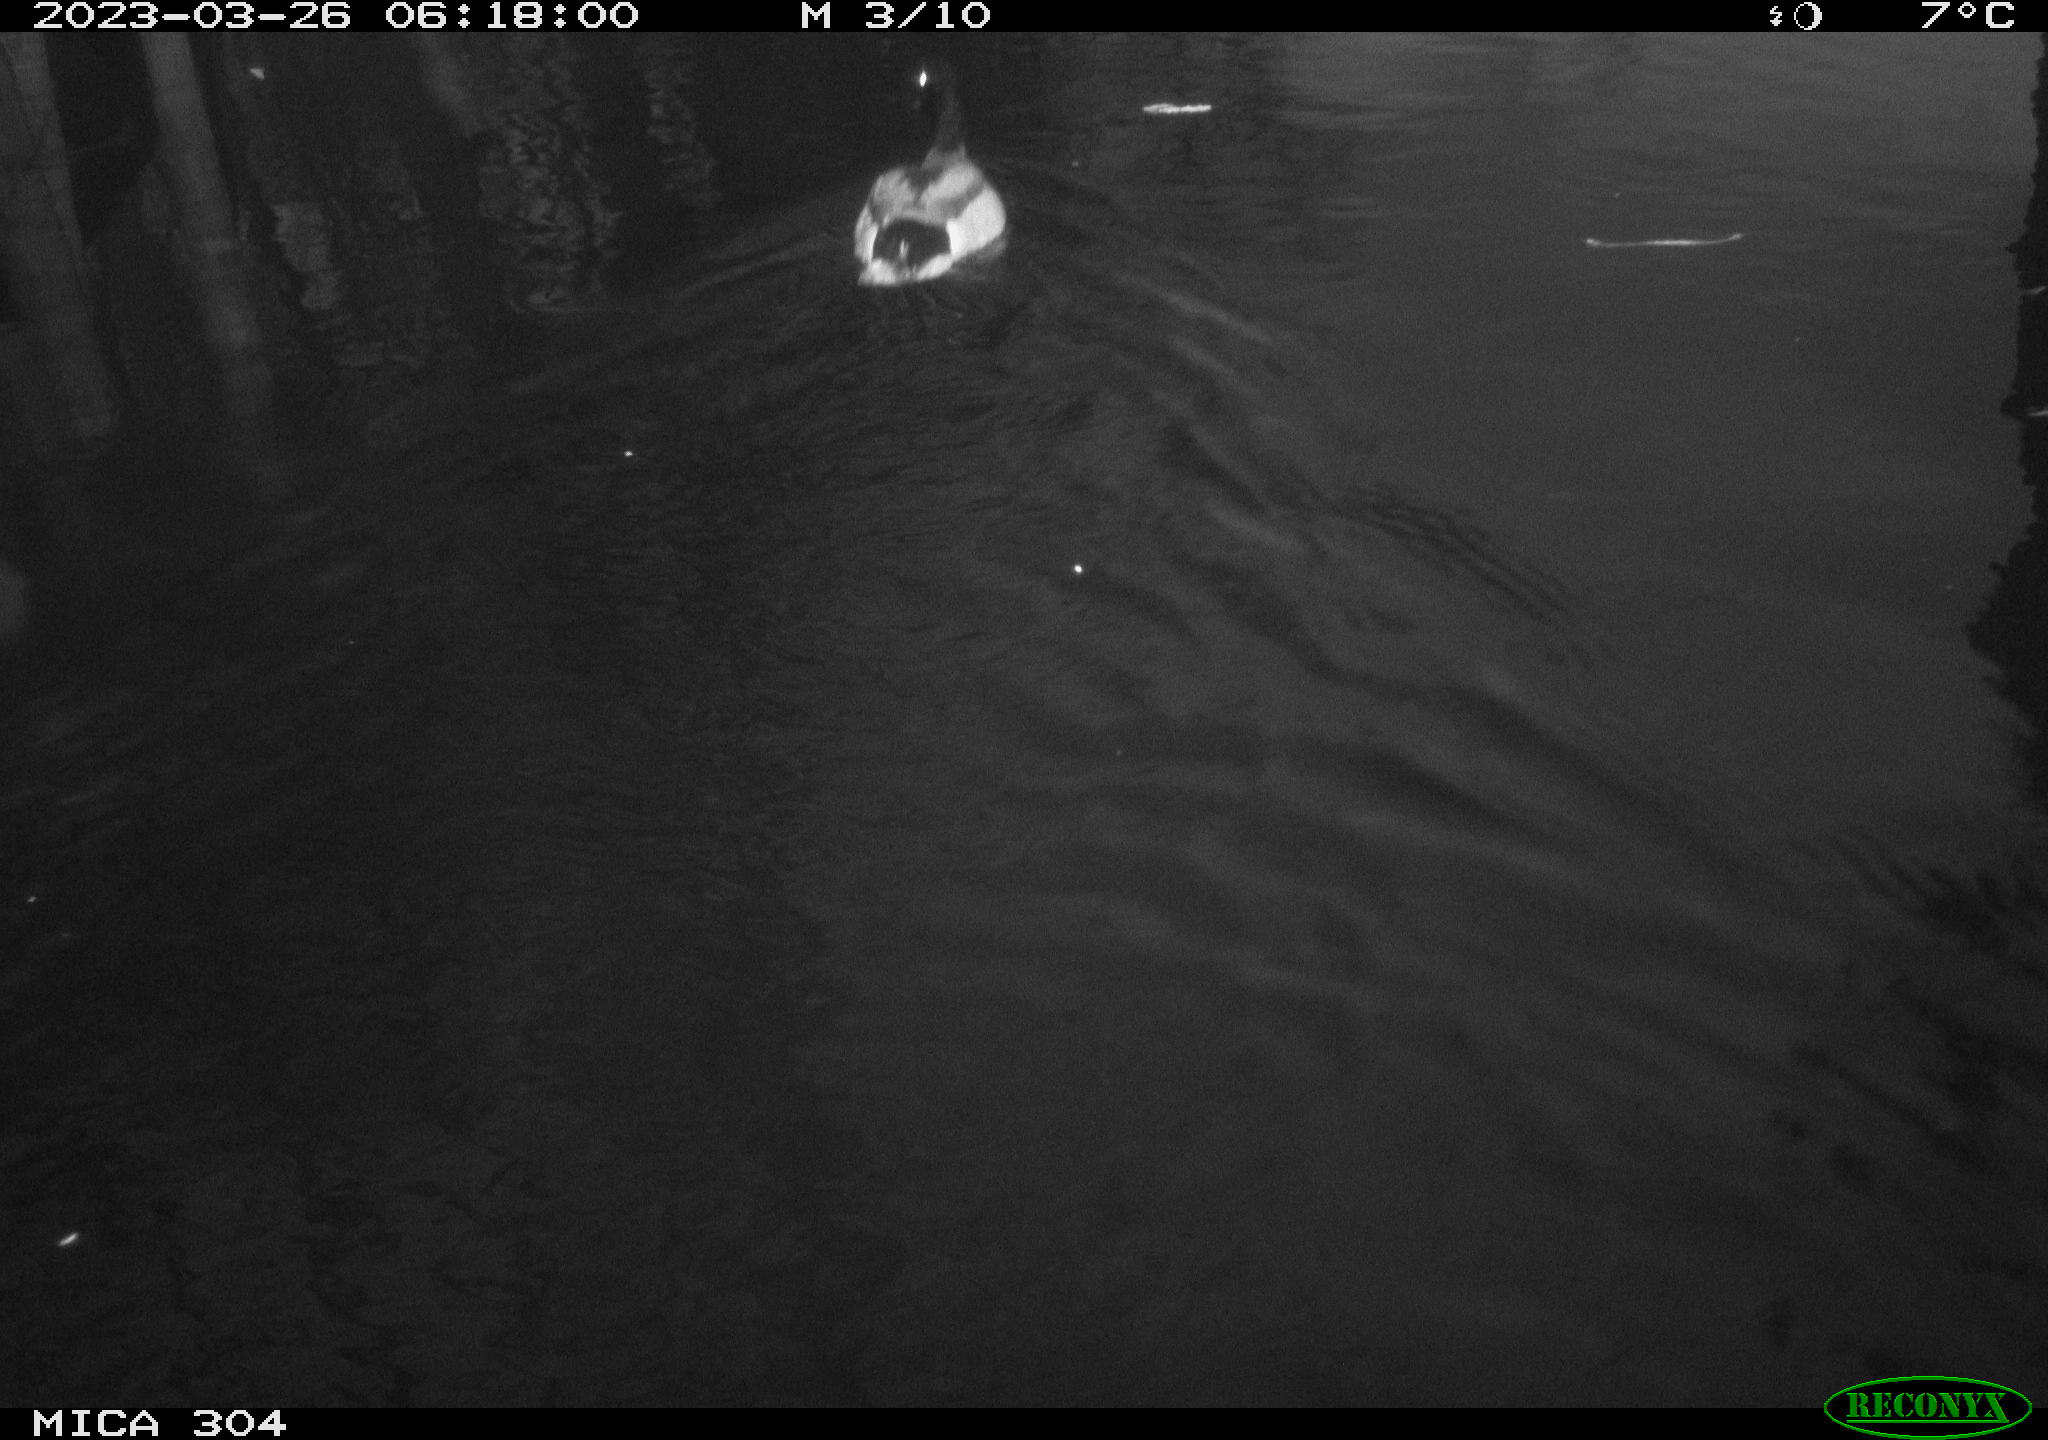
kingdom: Animalia
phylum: Chordata
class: Aves
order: Anseriformes
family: Anatidae
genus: Anas
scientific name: Anas
